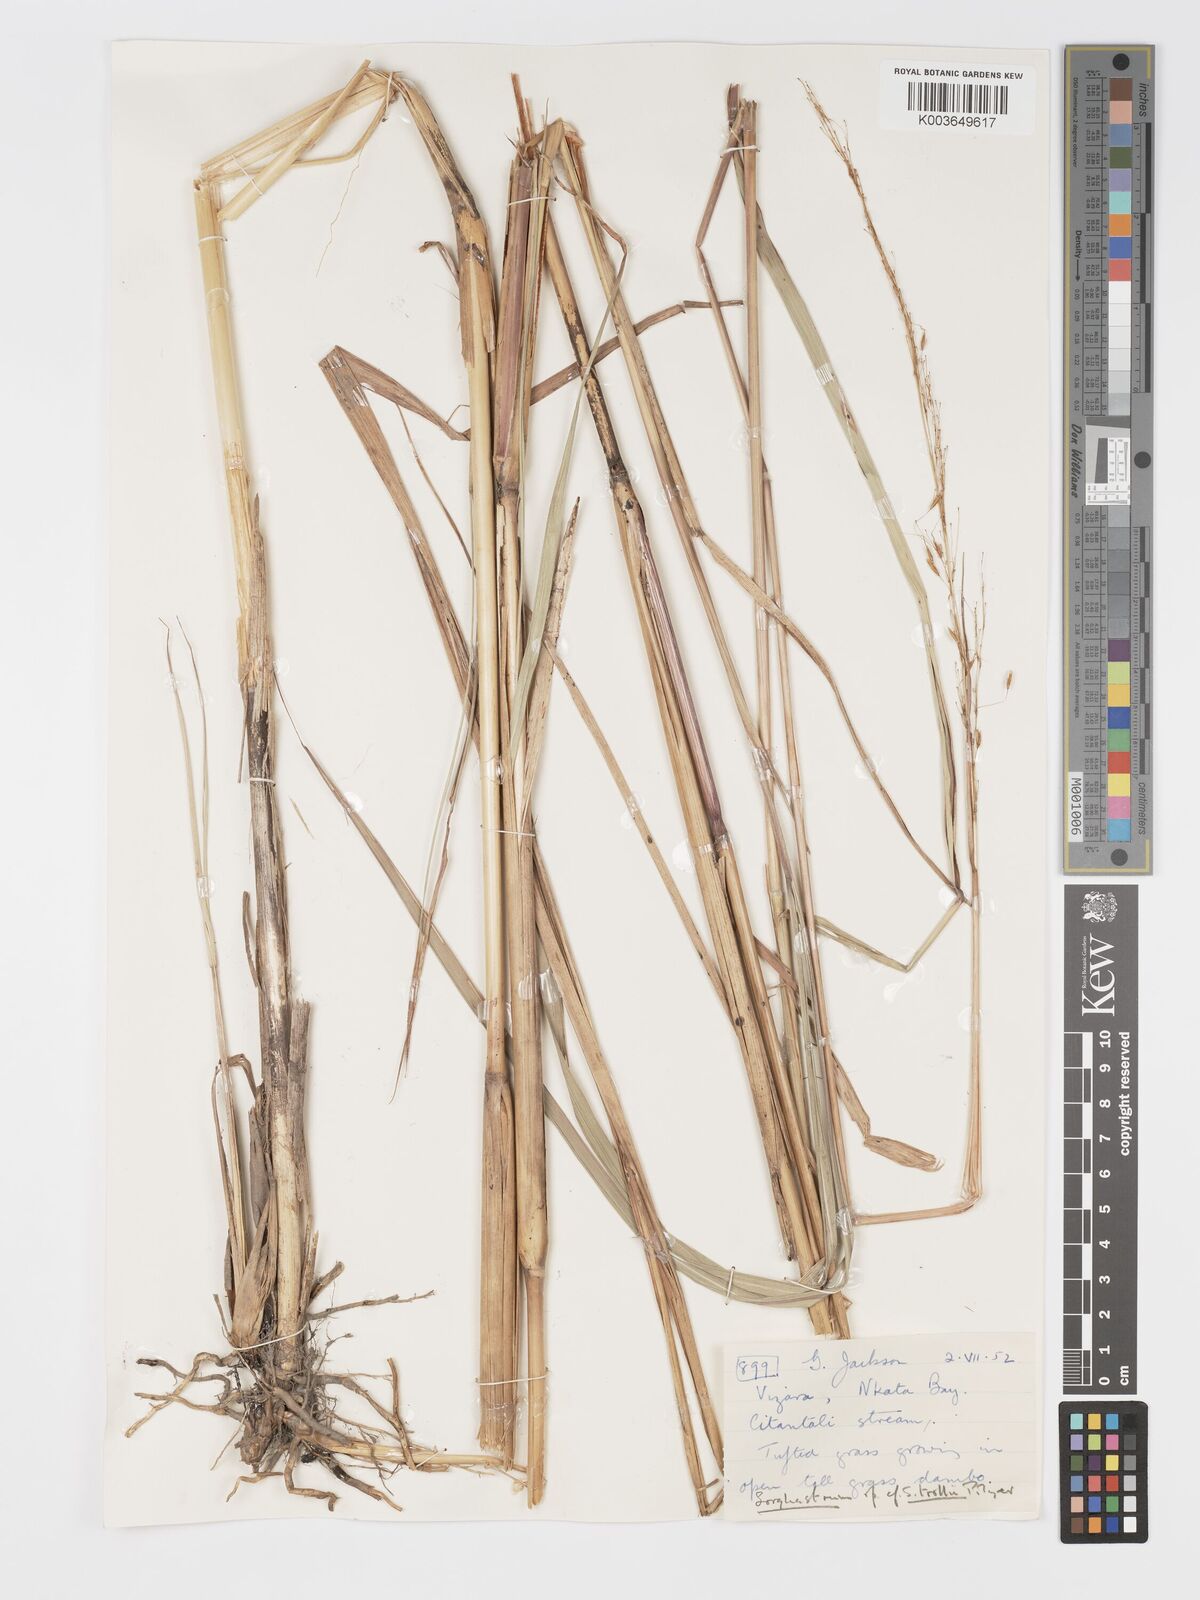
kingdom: Plantae
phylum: Tracheophyta
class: Liliopsida
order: Poales
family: Poaceae
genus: Sorghastrum
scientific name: Sorghastrum stipoides
